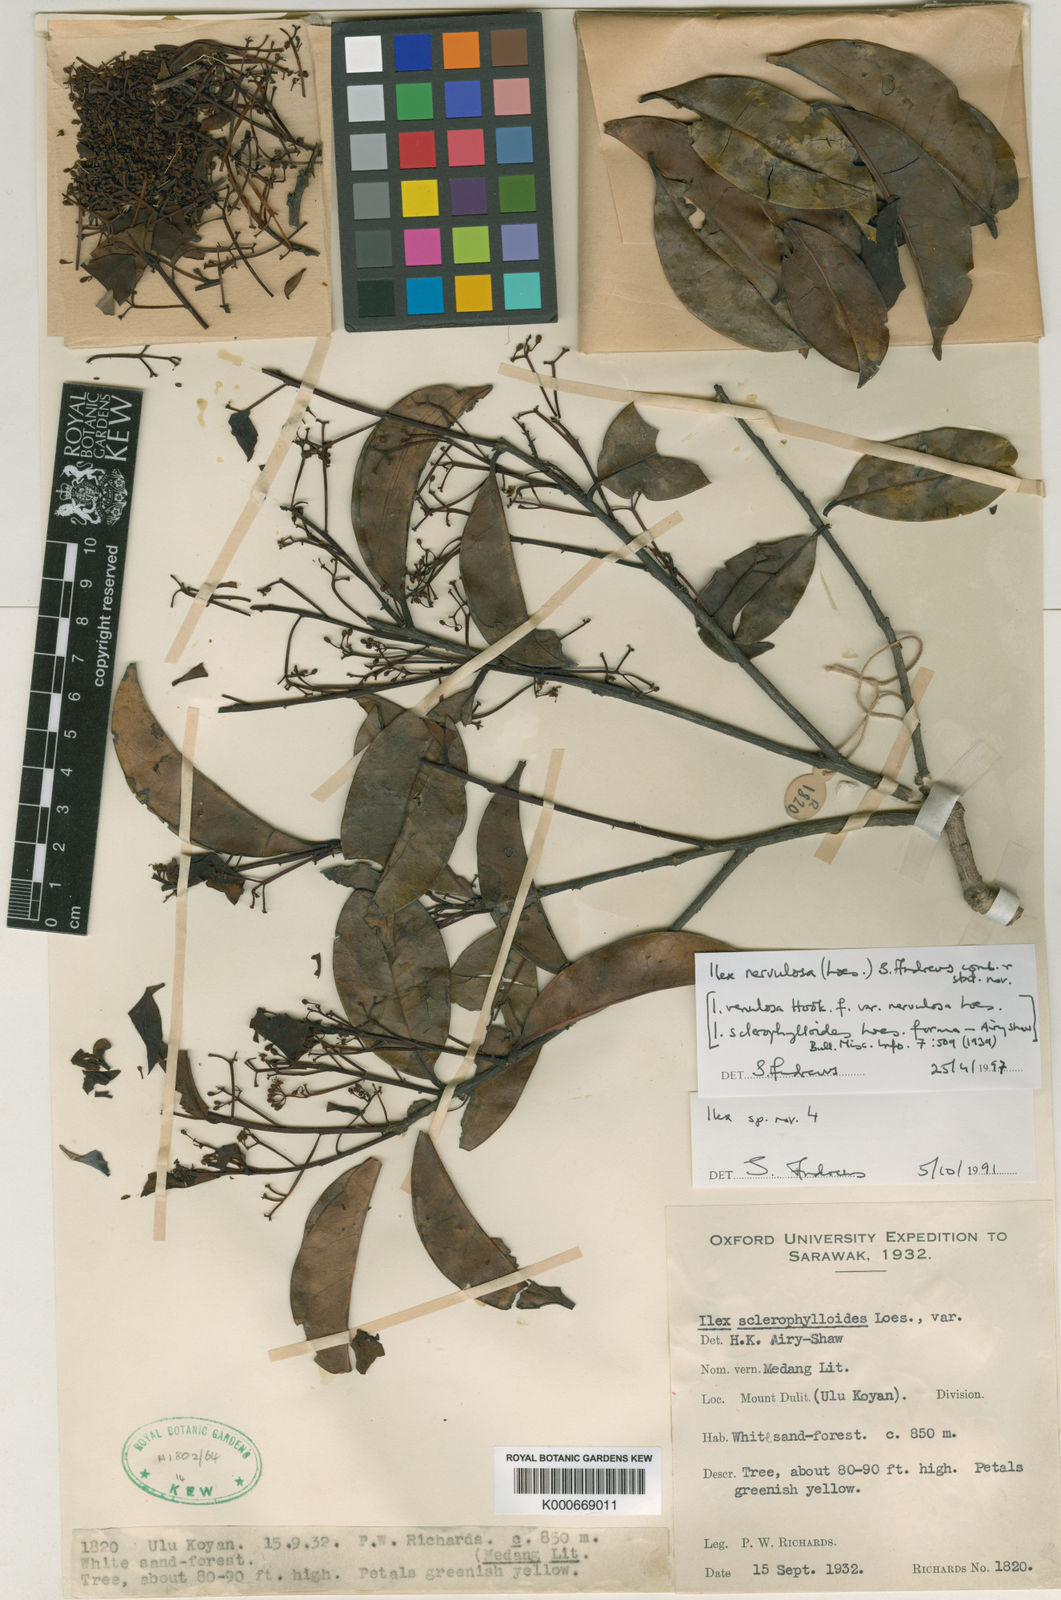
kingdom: Plantae
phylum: Tracheophyta
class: Magnoliopsida
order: Aquifoliales
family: Aquifoliaceae
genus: Ilex
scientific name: Ilex nervulosa
